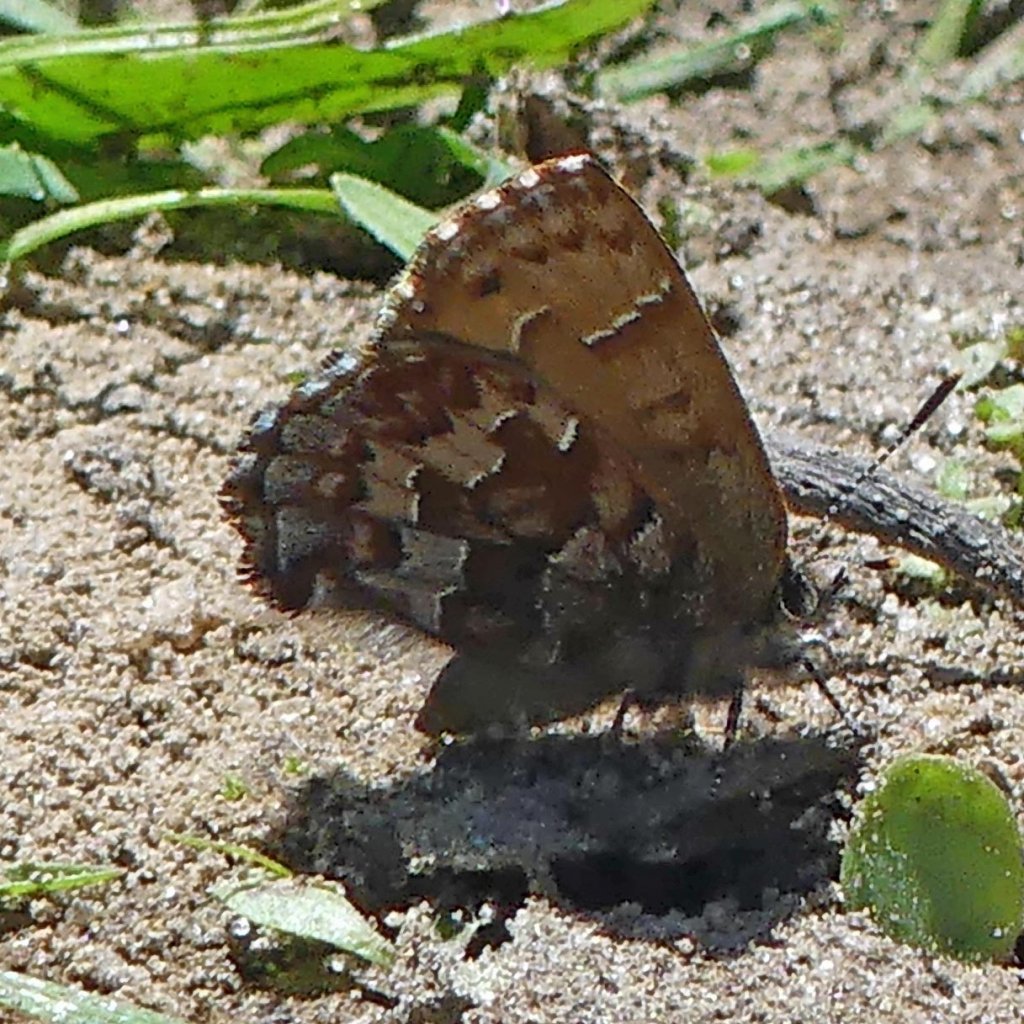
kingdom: Animalia
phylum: Arthropoda
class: Insecta
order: Lepidoptera
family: Lycaenidae
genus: Incisalia
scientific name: Incisalia niphon
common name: Eastern Pine Elfin
